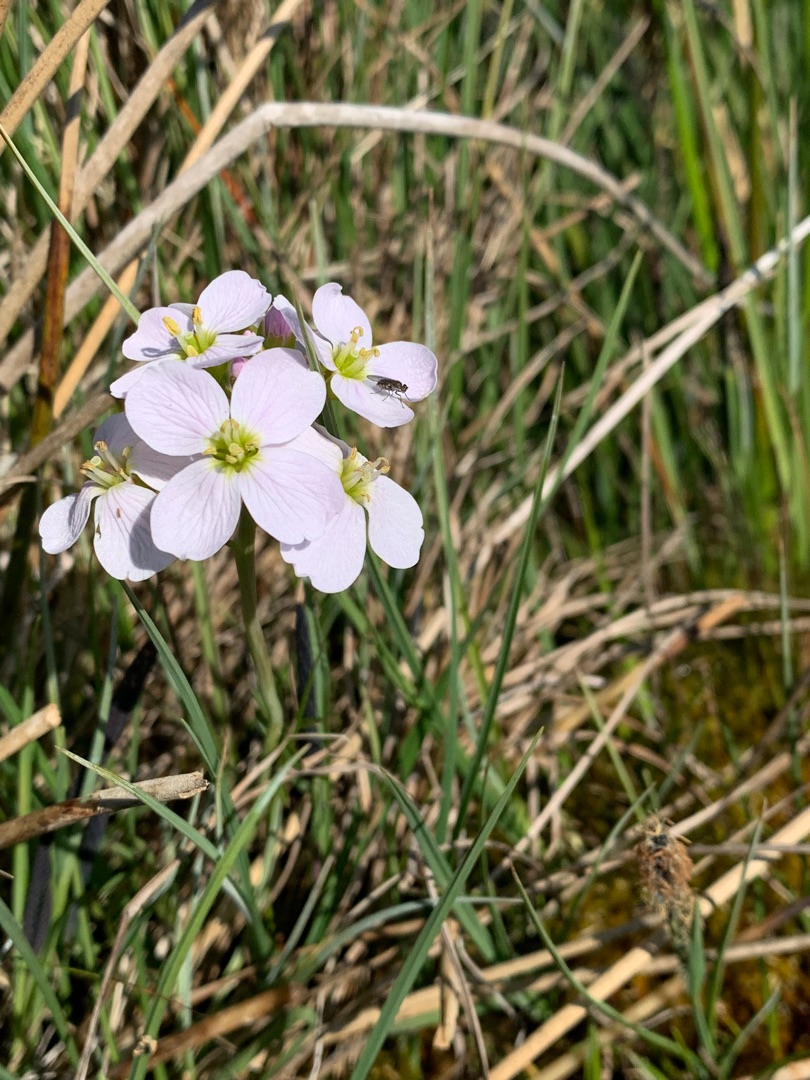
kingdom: Plantae
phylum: Tracheophyta
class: Magnoliopsida
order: Brassicales
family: Brassicaceae
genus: Cardamine
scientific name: Cardamine pratensis
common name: Engkarse
